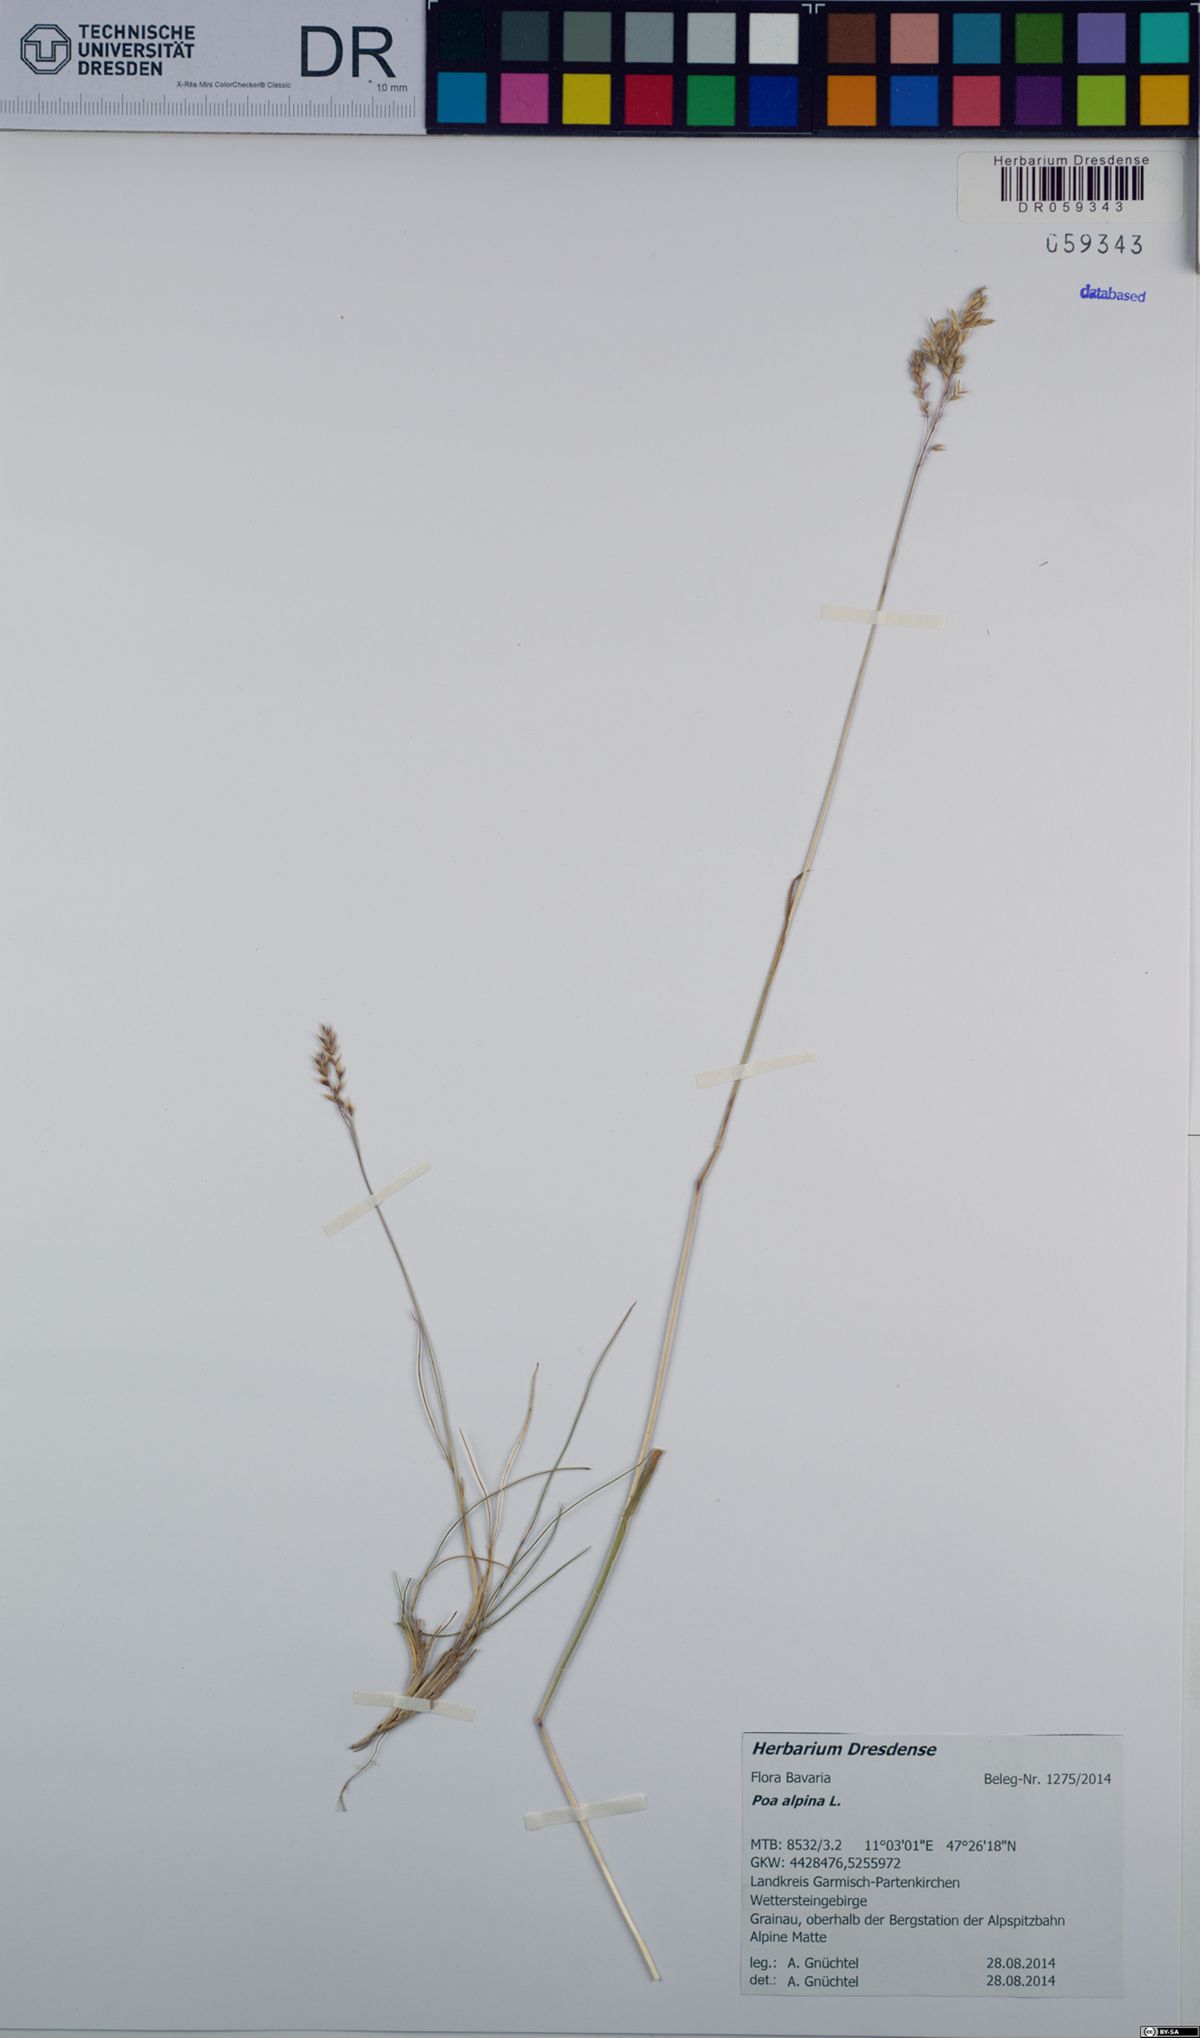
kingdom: Plantae
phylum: Tracheophyta
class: Liliopsida
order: Poales
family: Poaceae
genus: Poa
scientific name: Poa alpina
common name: Alpine bluegrass
